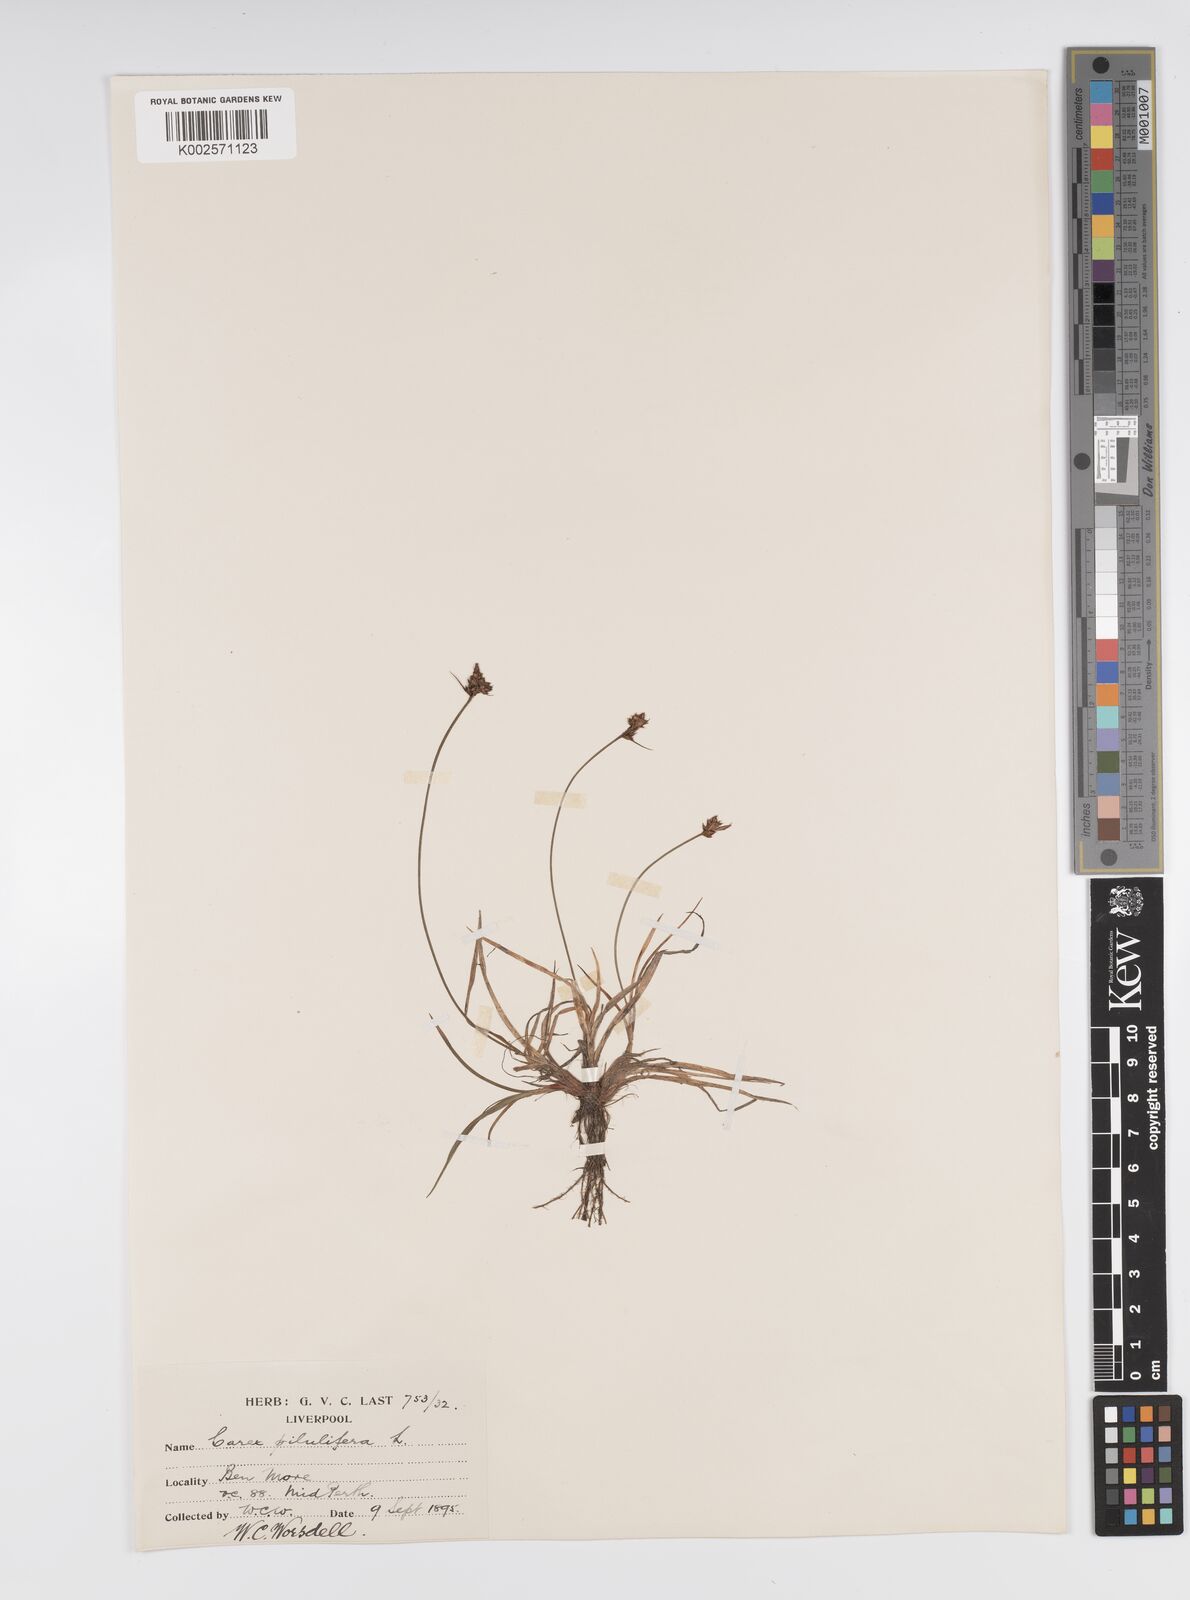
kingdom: Plantae
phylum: Tracheophyta
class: Liliopsida
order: Poales
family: Cyperaceae
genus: Carex
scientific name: Carex pilulifera
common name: Pill sedge
